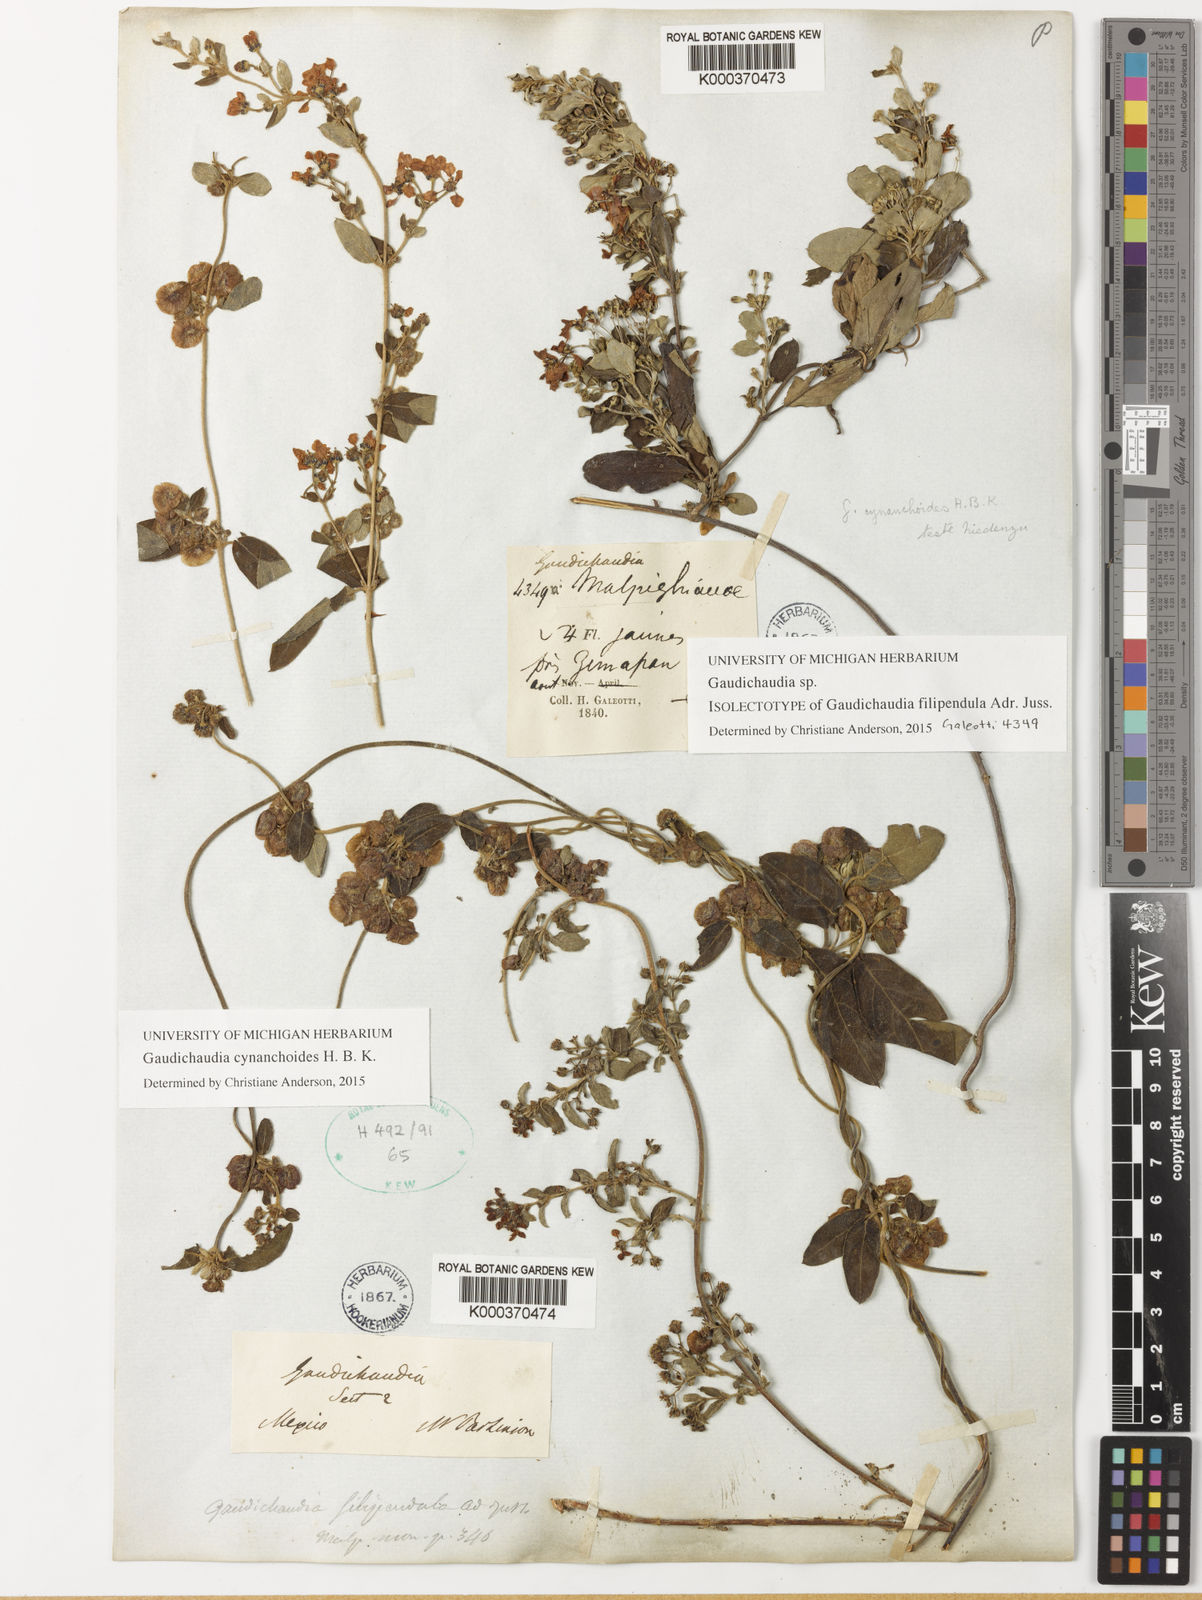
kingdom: Plantae
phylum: Tracheophyta
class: Magnoliopsida
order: Malpighiales
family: Malpighiaceae
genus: Gaudichaudia
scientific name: Gaudichaudia mucronata
